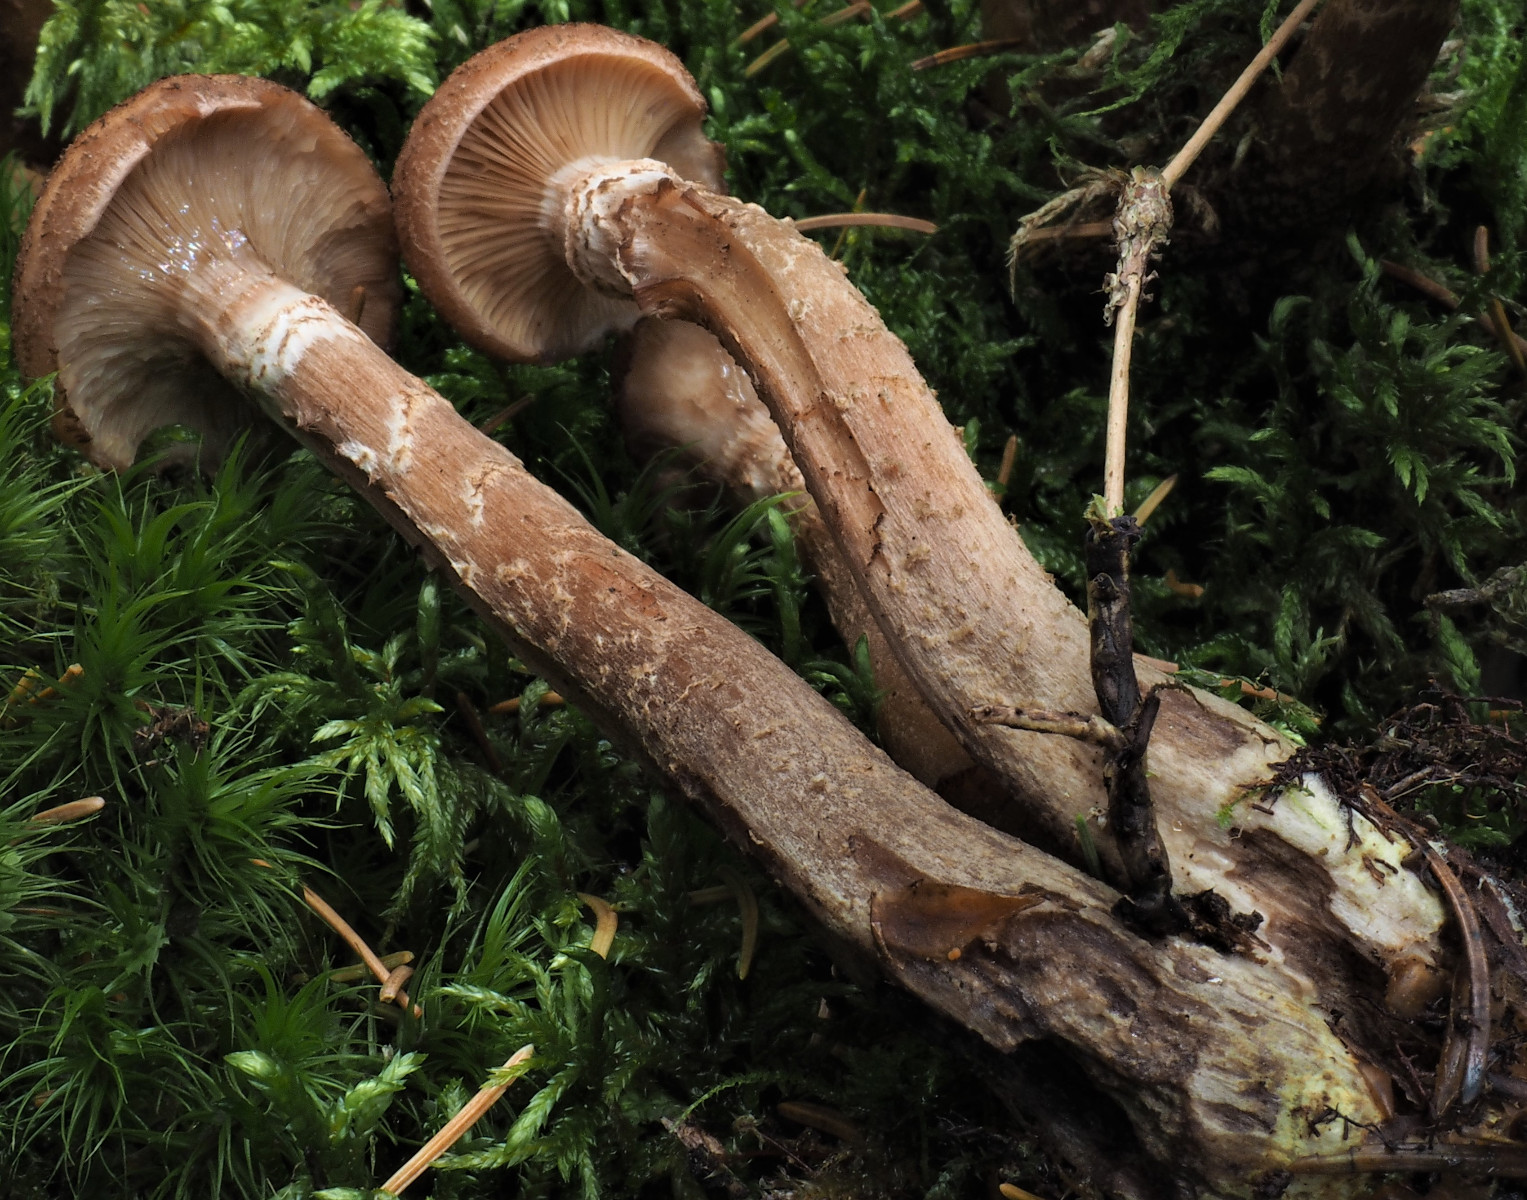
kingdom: Fungi
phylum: Basidiomycota
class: Agaricomycetes
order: Agaricales
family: Physalacriaceae
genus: Armillaria
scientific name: Armillaria ostoyae
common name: mørk honningsvamp
